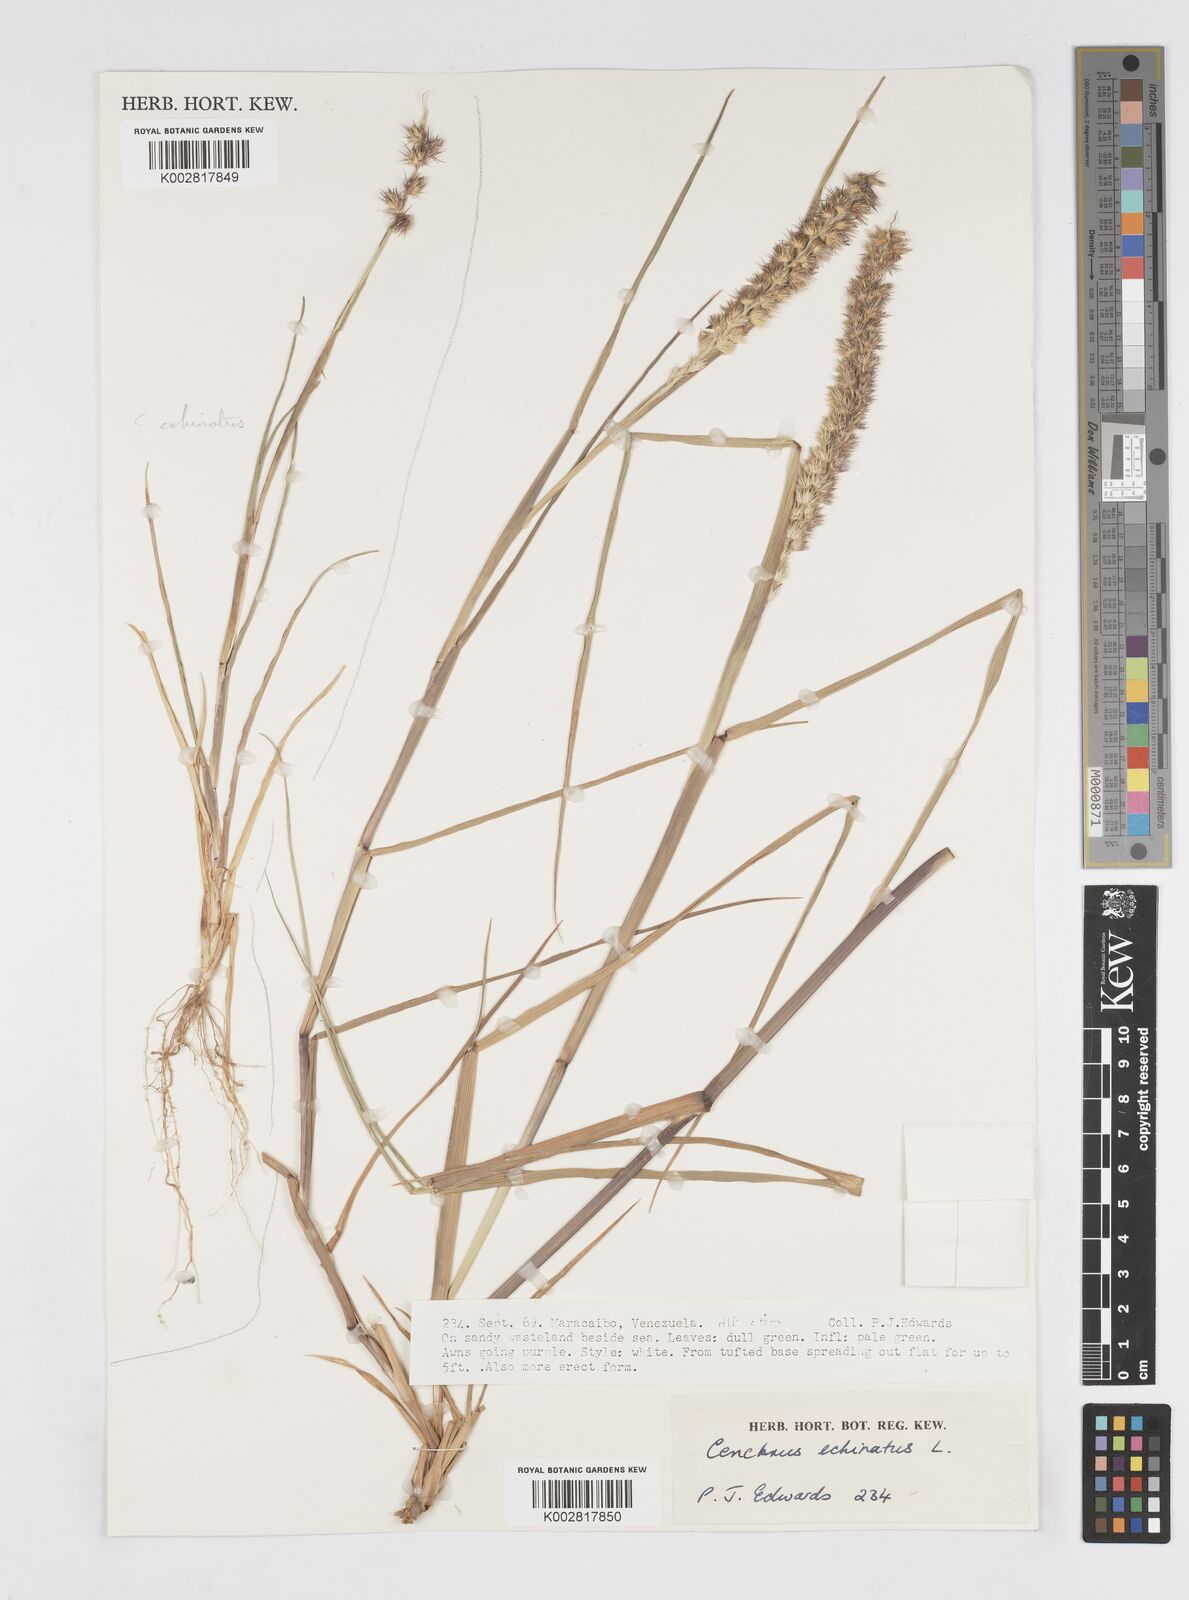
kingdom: Plantae
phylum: Tracheophyta
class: Liliopsida
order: Poales
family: Poaceae
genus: Cenchrus
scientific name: Cenchrus
